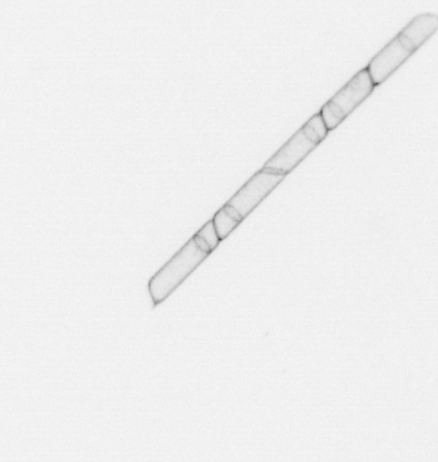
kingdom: Chromista
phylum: Ochrophyta
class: Bacillariophyceae
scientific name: Bacillariophyceae
